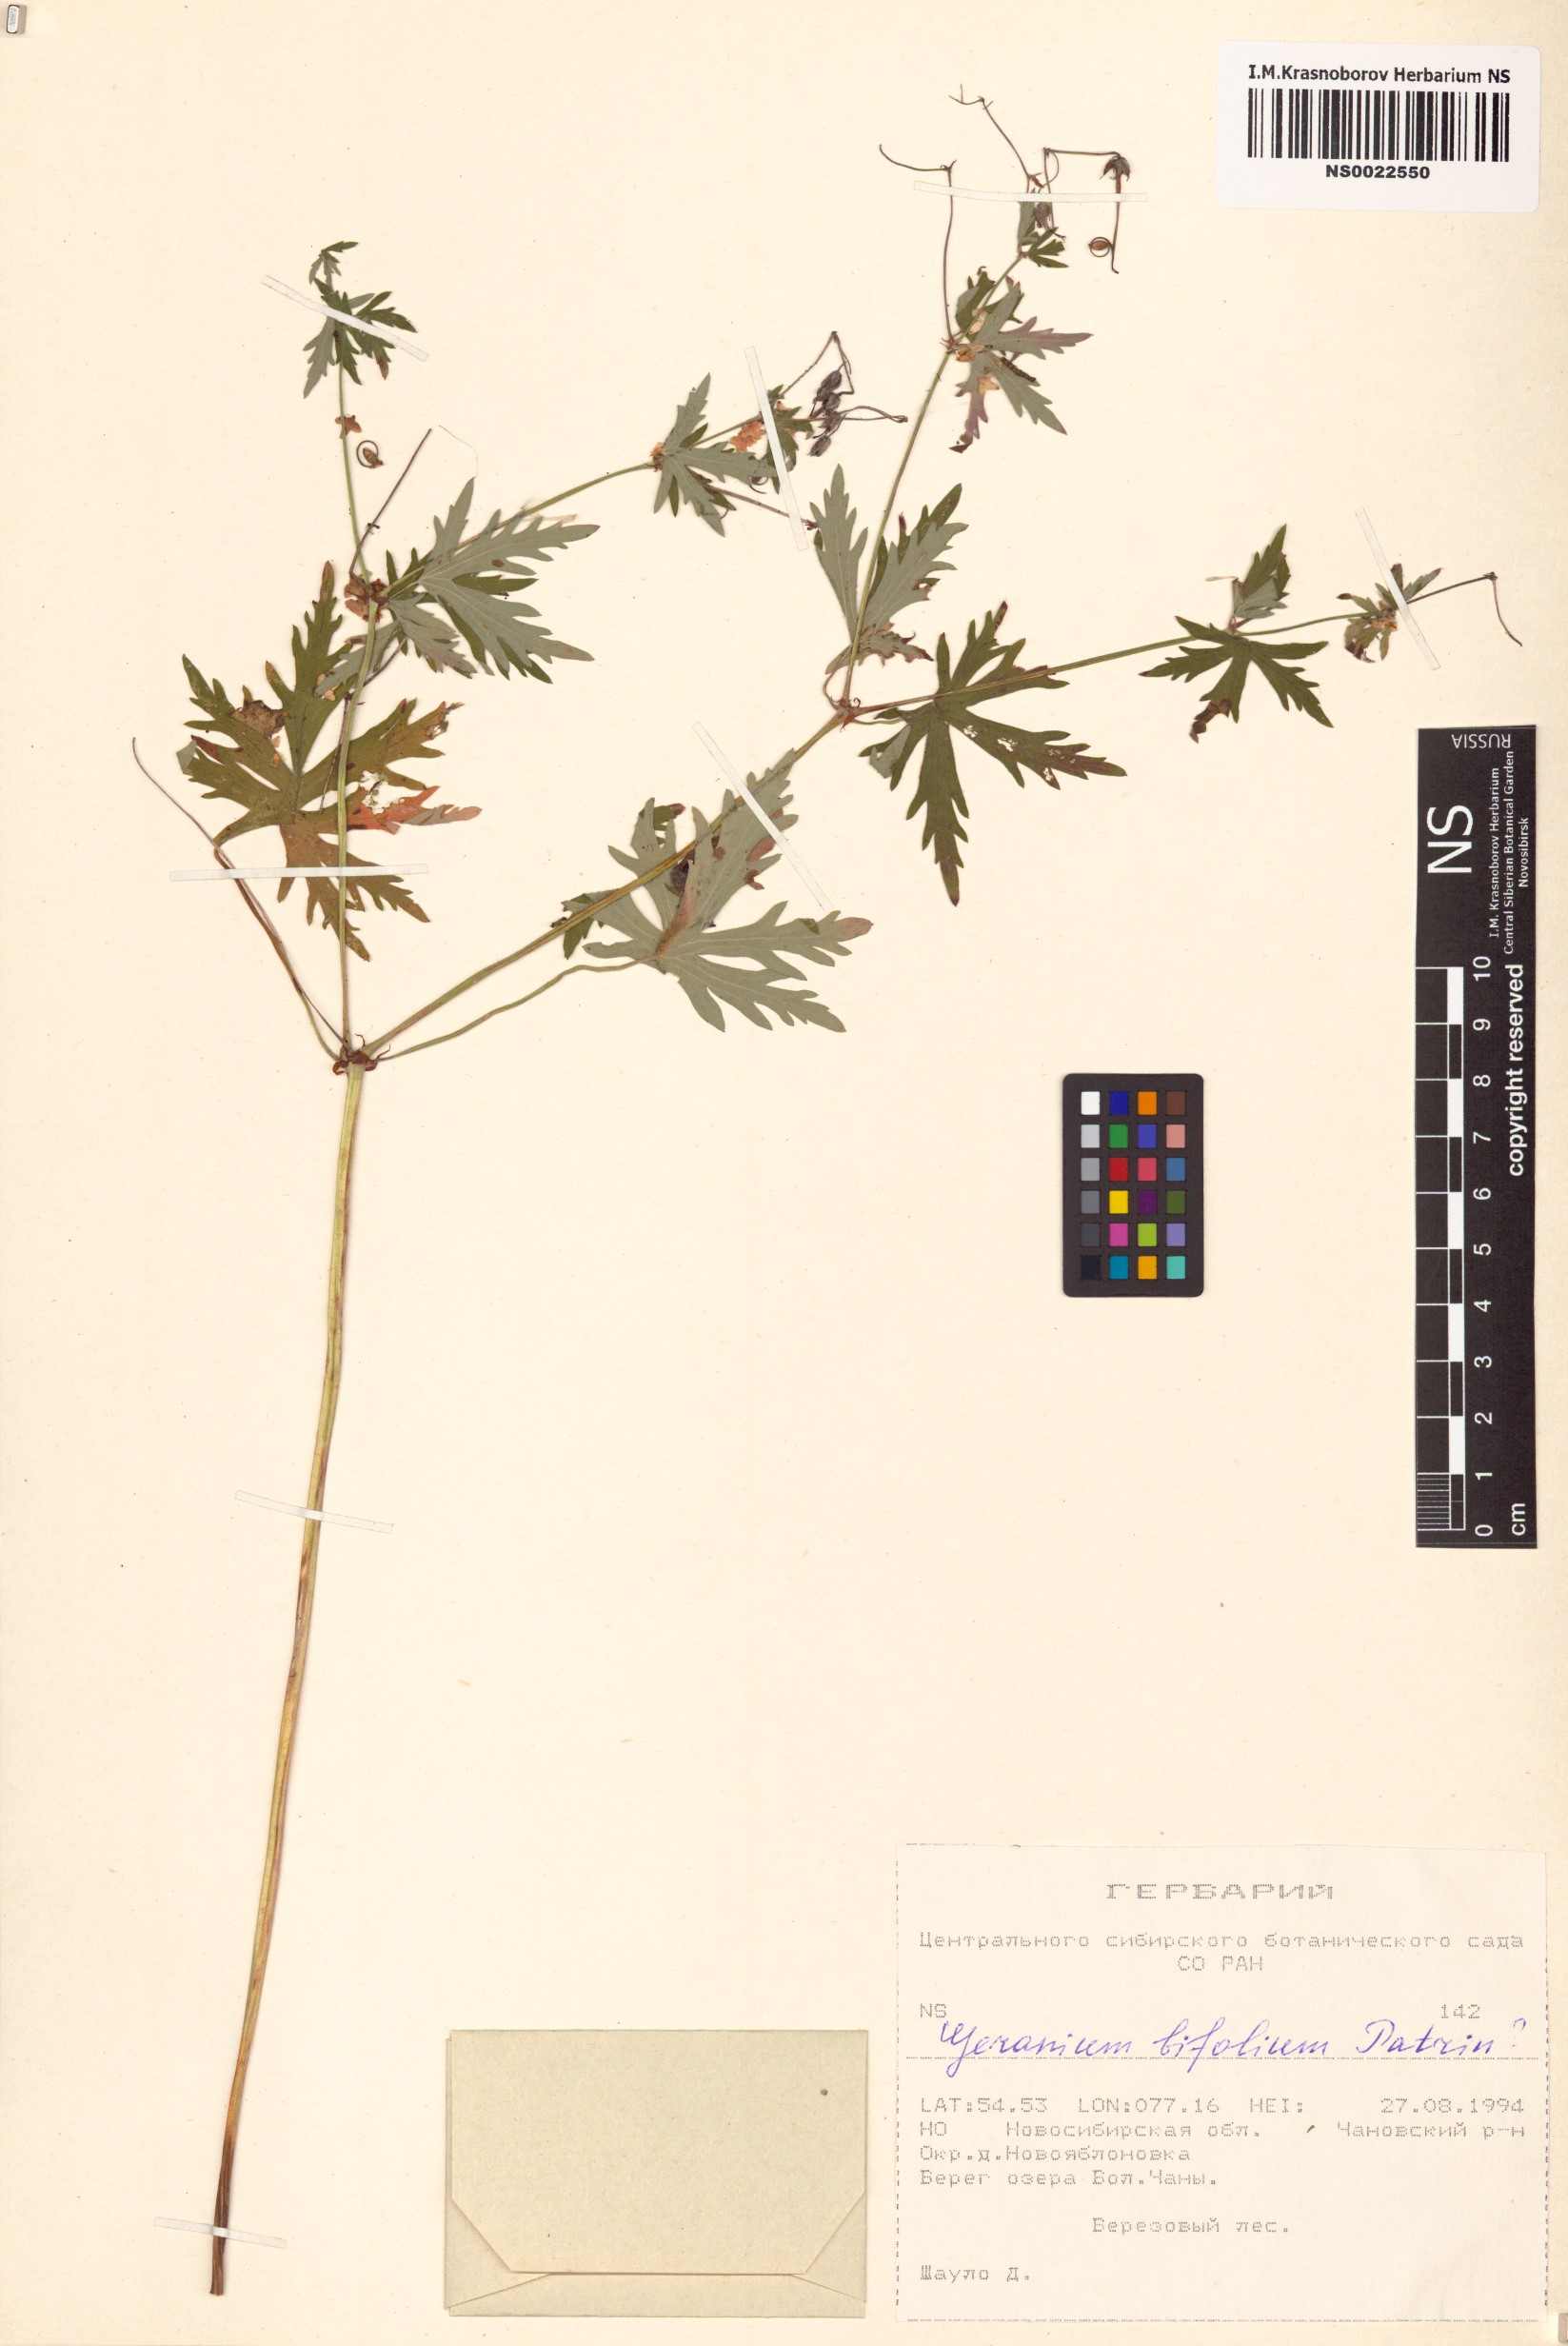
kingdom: Plantae
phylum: Tracheophyta
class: Magnoliopsida
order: Geraniales
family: Geraniaceae
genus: Geranium
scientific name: Geranium pseudosibiricum
